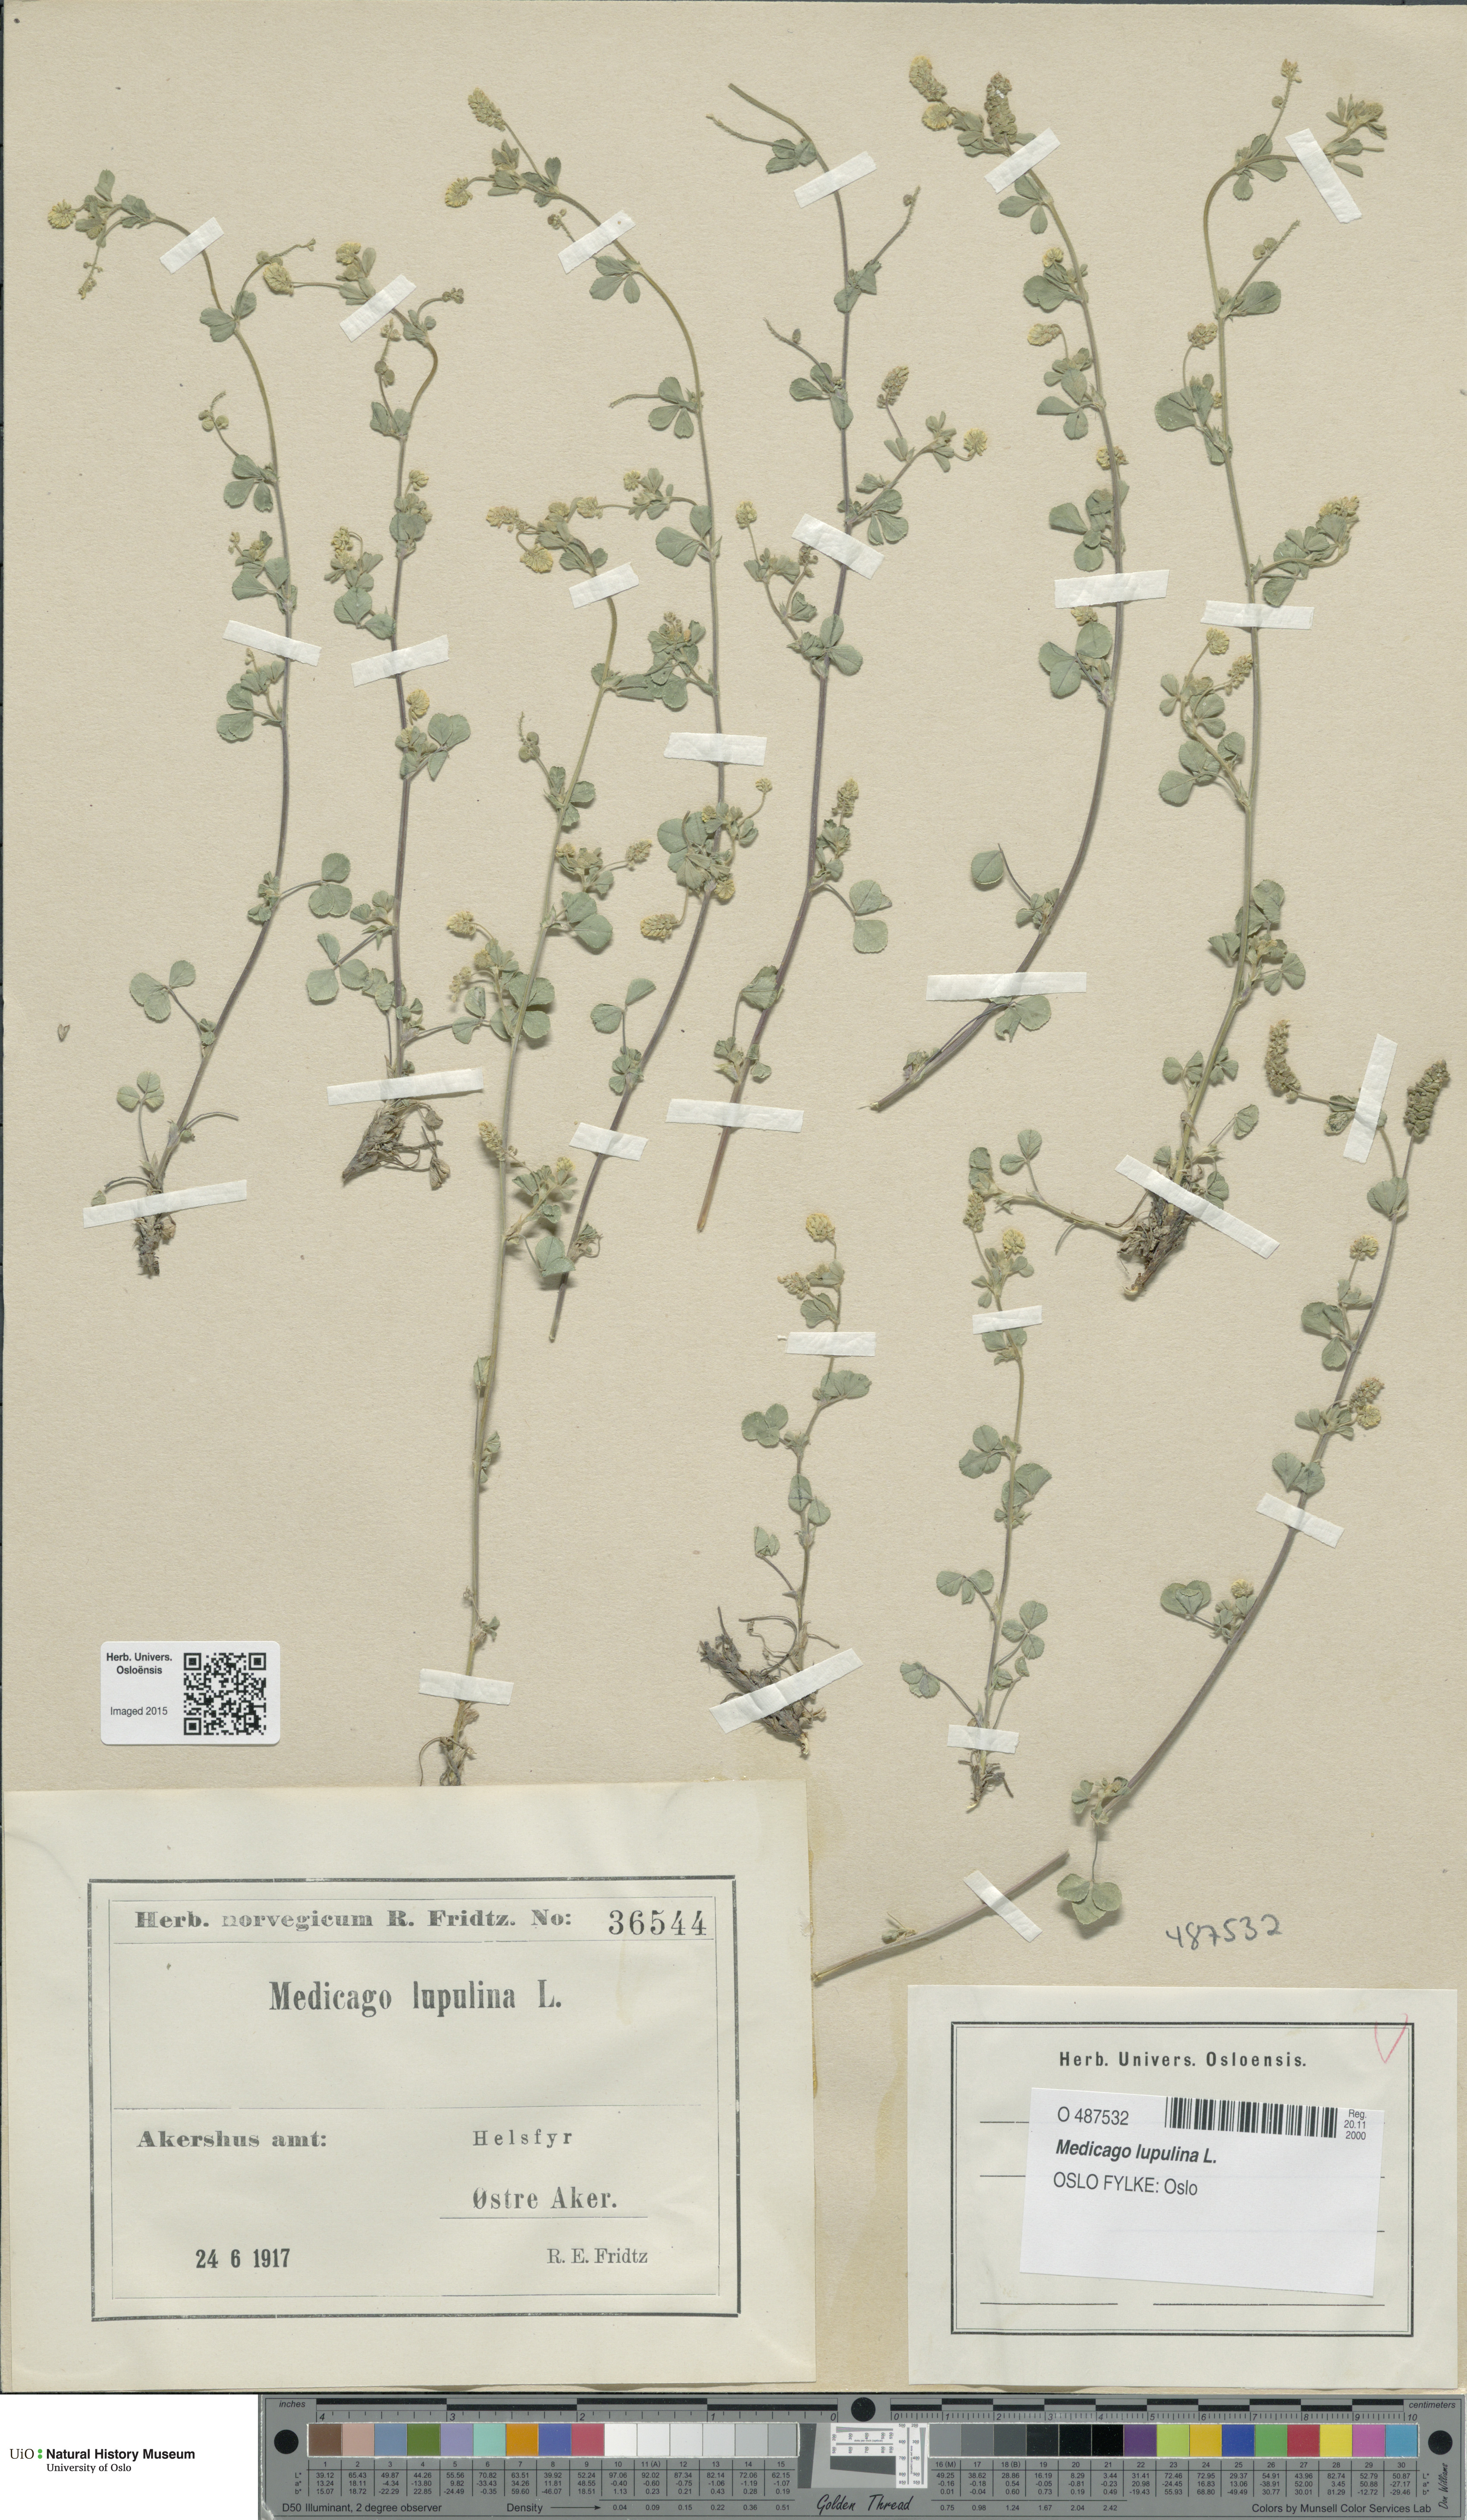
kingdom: Plantae
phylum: Tracheophyta
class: Magnoliopsida
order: Fabales
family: Fabaceae
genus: Medicago
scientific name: Medicago lupulina
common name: Black medick
